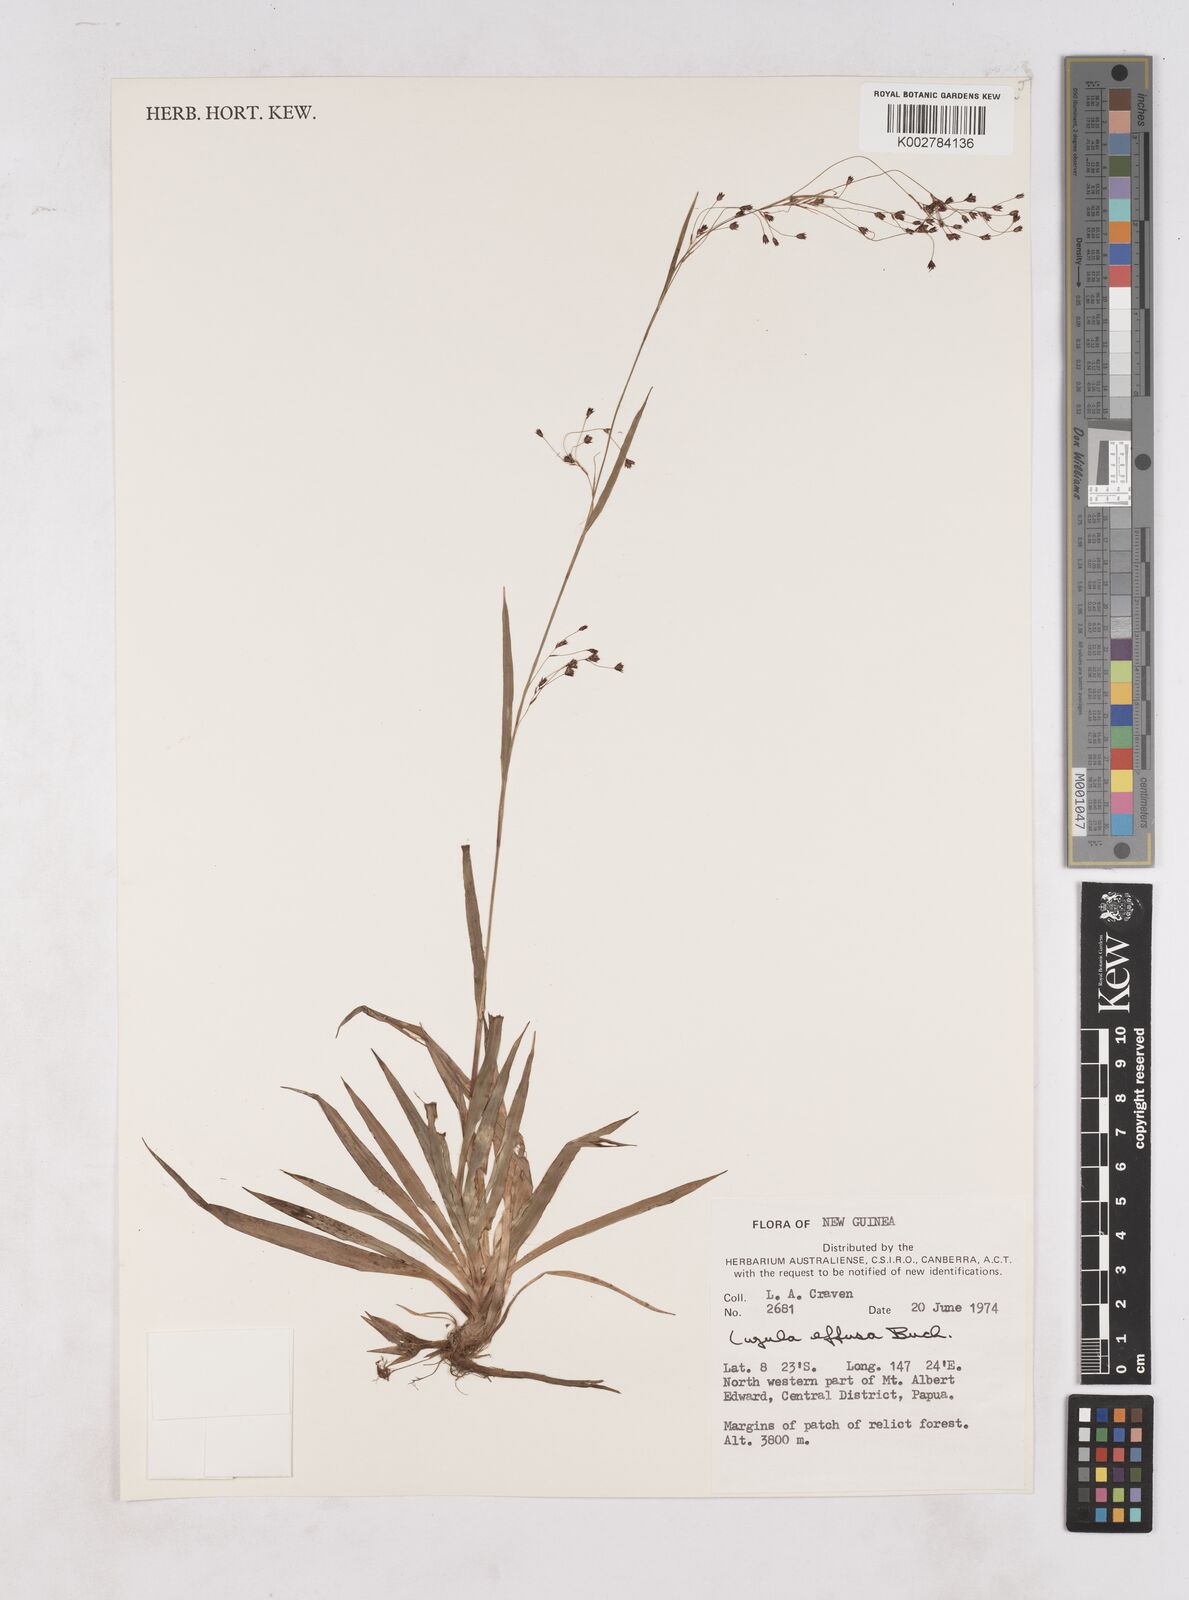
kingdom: Plantae
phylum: Tracheophyta
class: Liliopsida
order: Poales
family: Juncaceae
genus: Luzula
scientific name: Luzula effusa
